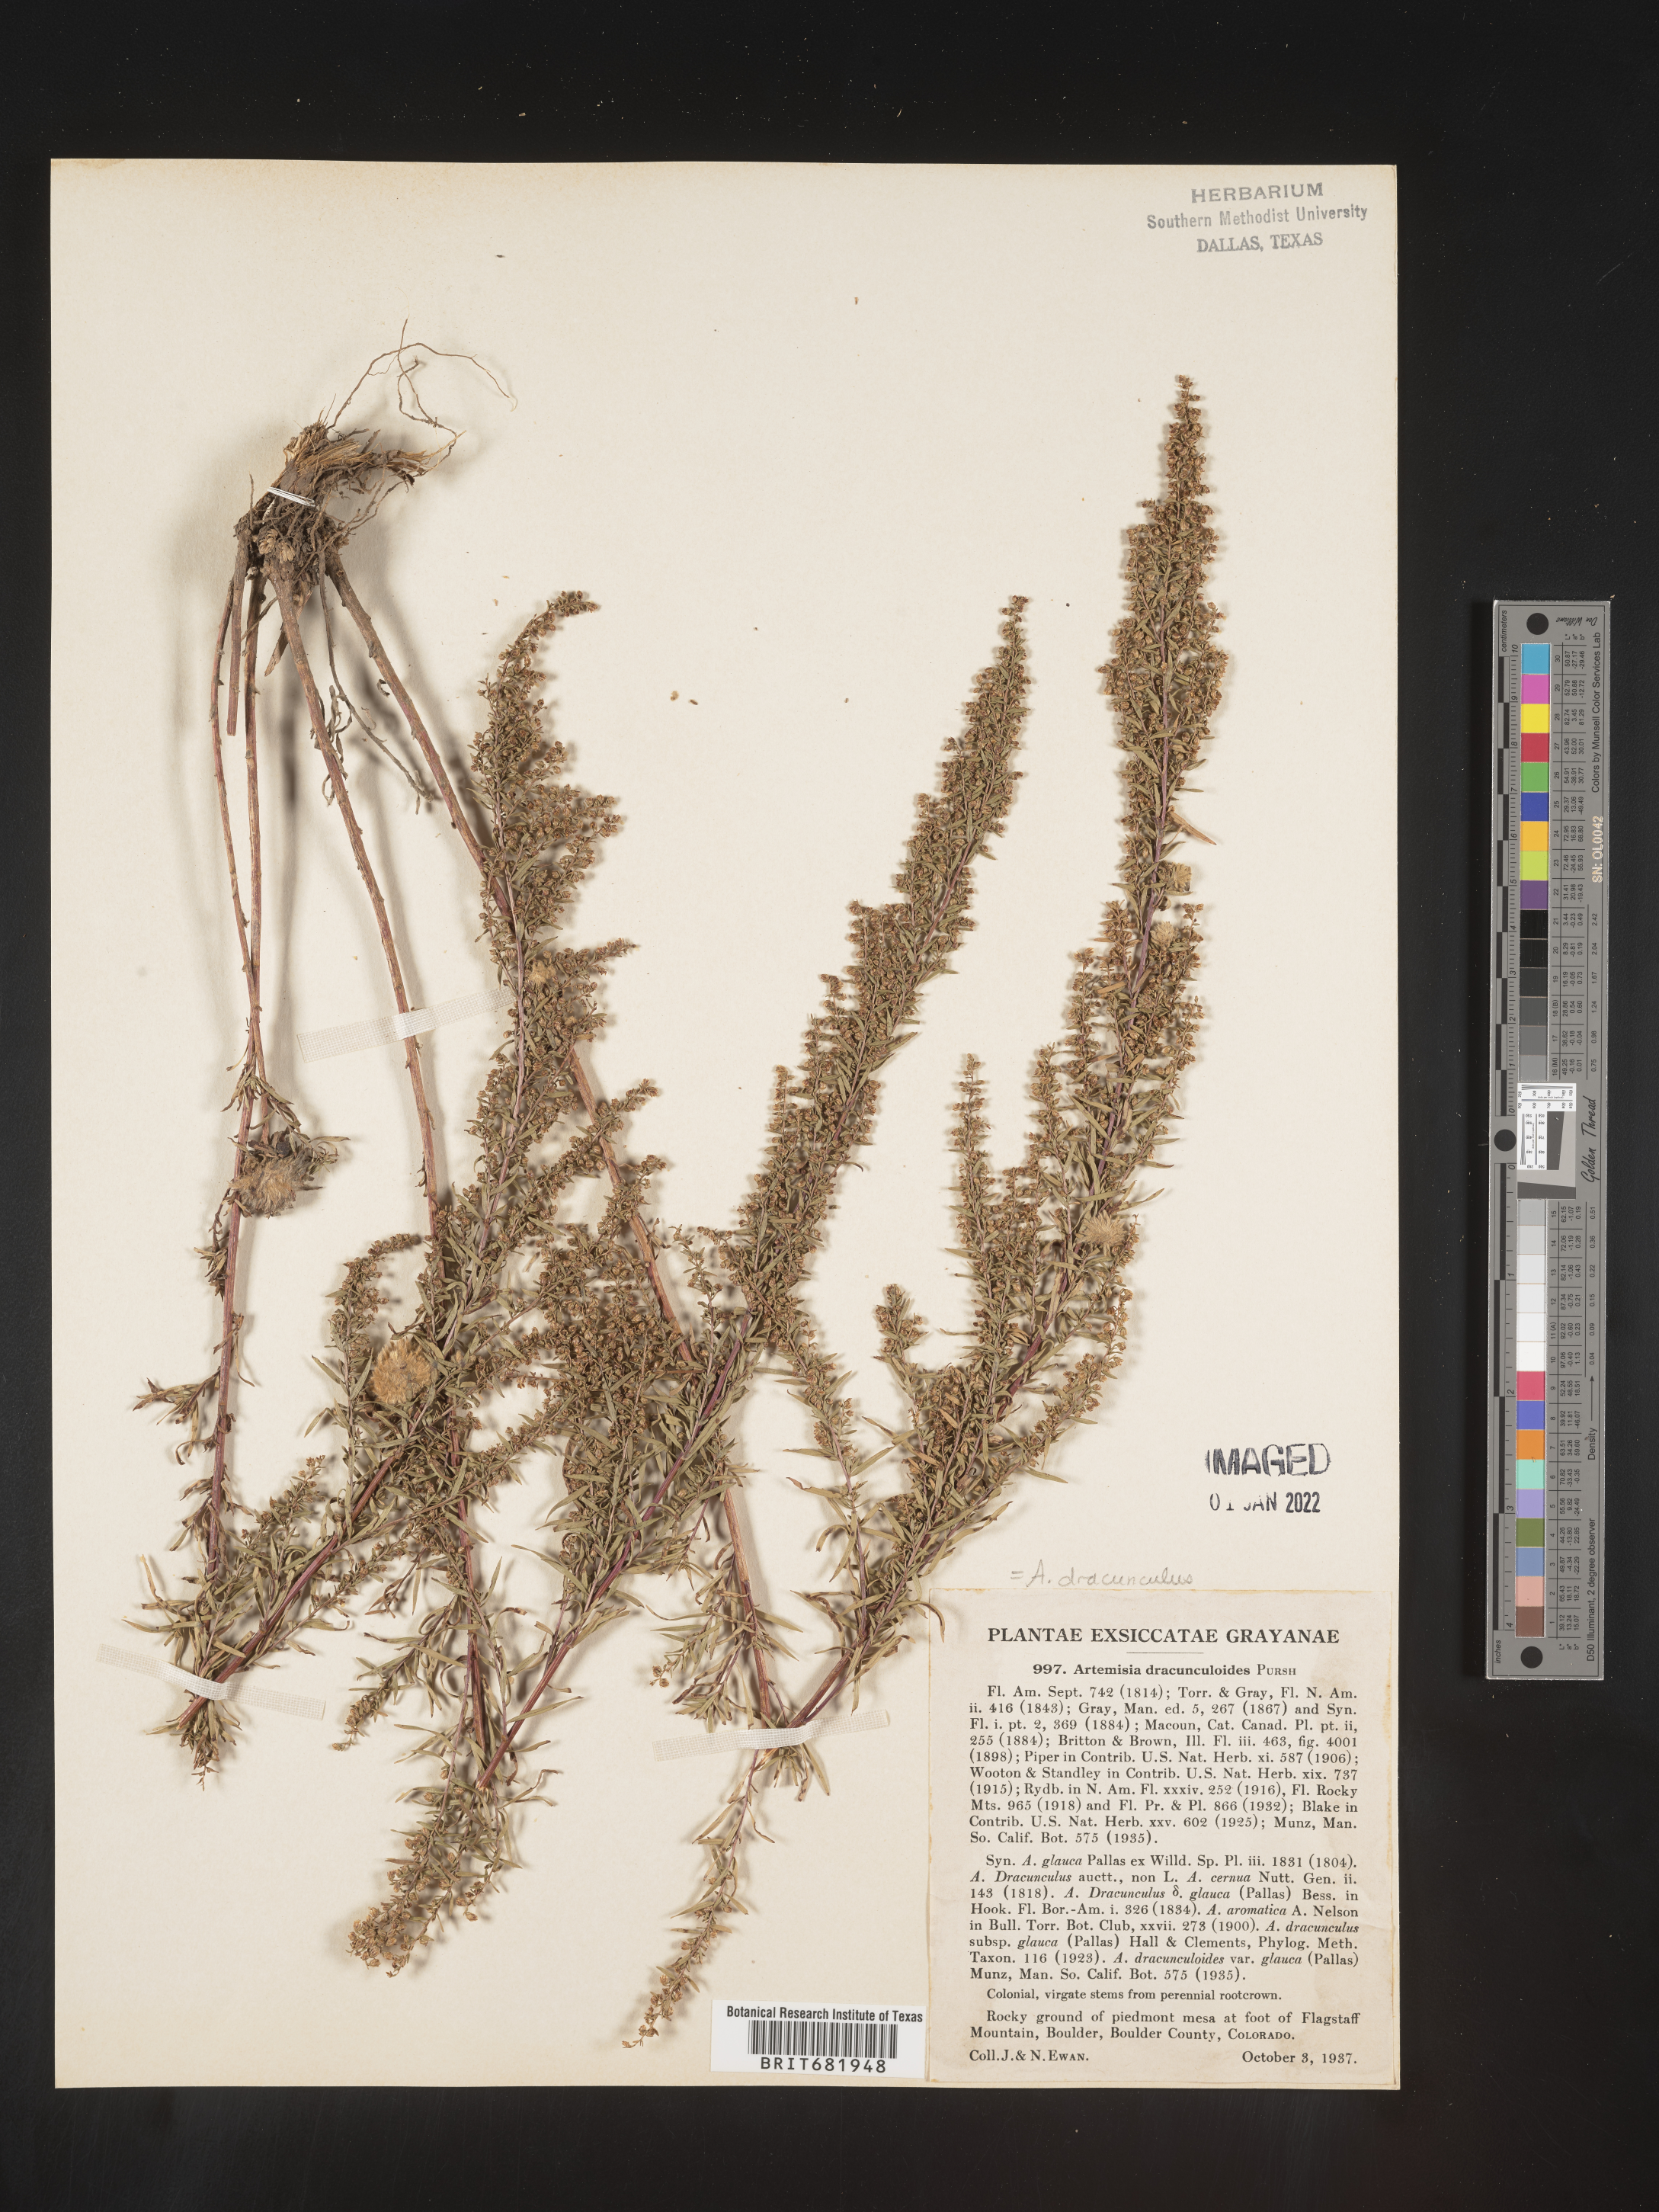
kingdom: Plantae
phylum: Tracheophyta
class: Magnoliopsida
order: Asterales
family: Asteraceae
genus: Artemisia
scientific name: Artemisia dracunculus
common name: Tarragon
